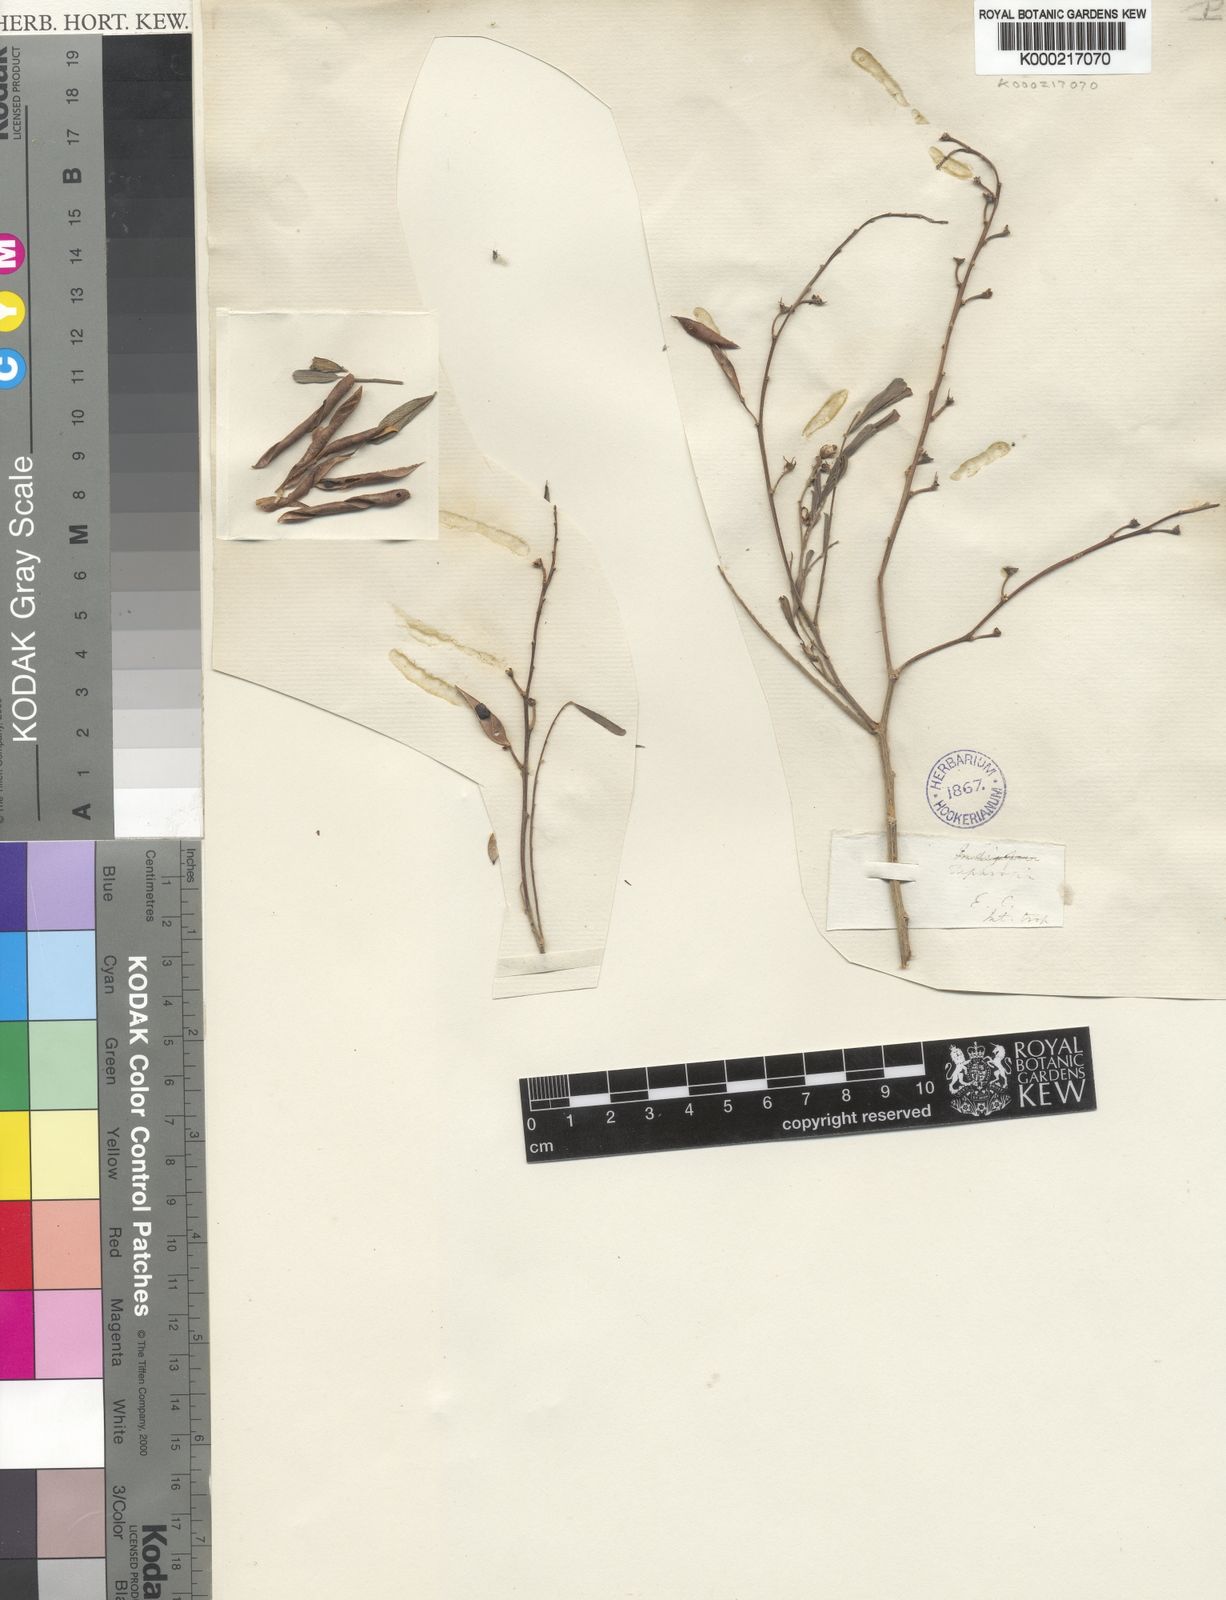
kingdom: Plantae
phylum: Tracheophyta
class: Magnoliopsida
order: Fabales
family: Fabaceae
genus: Tephrosia
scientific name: Tephrosia
